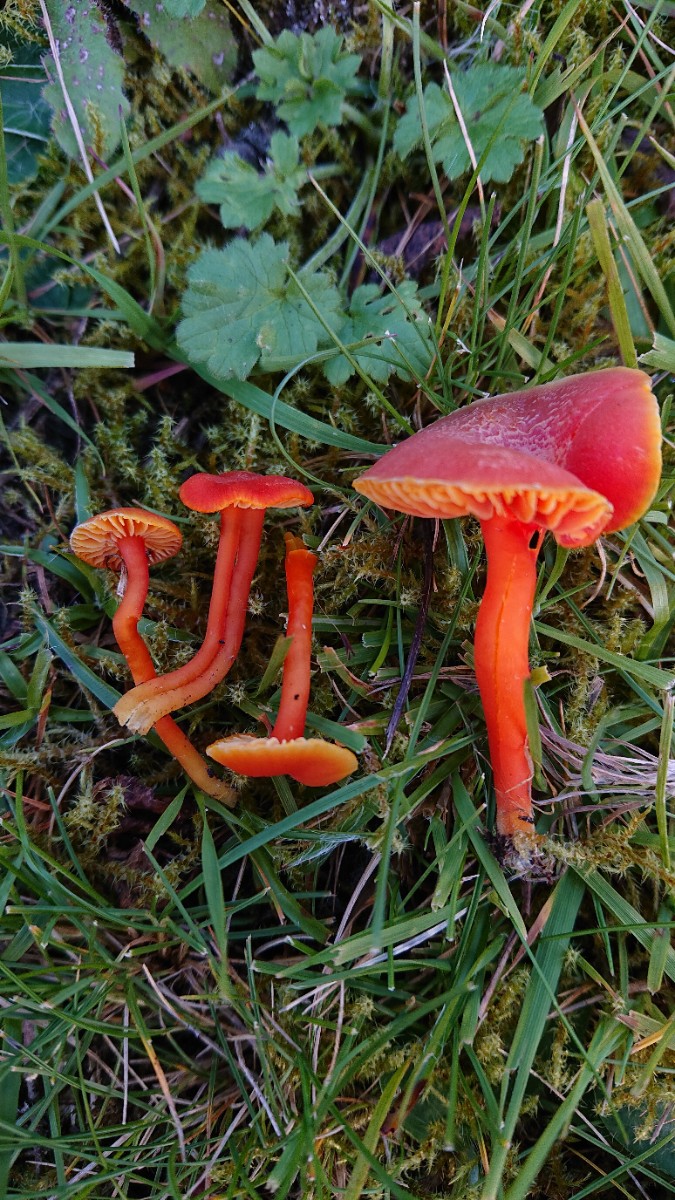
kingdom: Fungi
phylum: Basidiomycota
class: Agaricomycetes
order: Agaricales
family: Hygrophoraceae
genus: Hygrocybe
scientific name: Hygrocybe miniata
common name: mønje-vokshat
